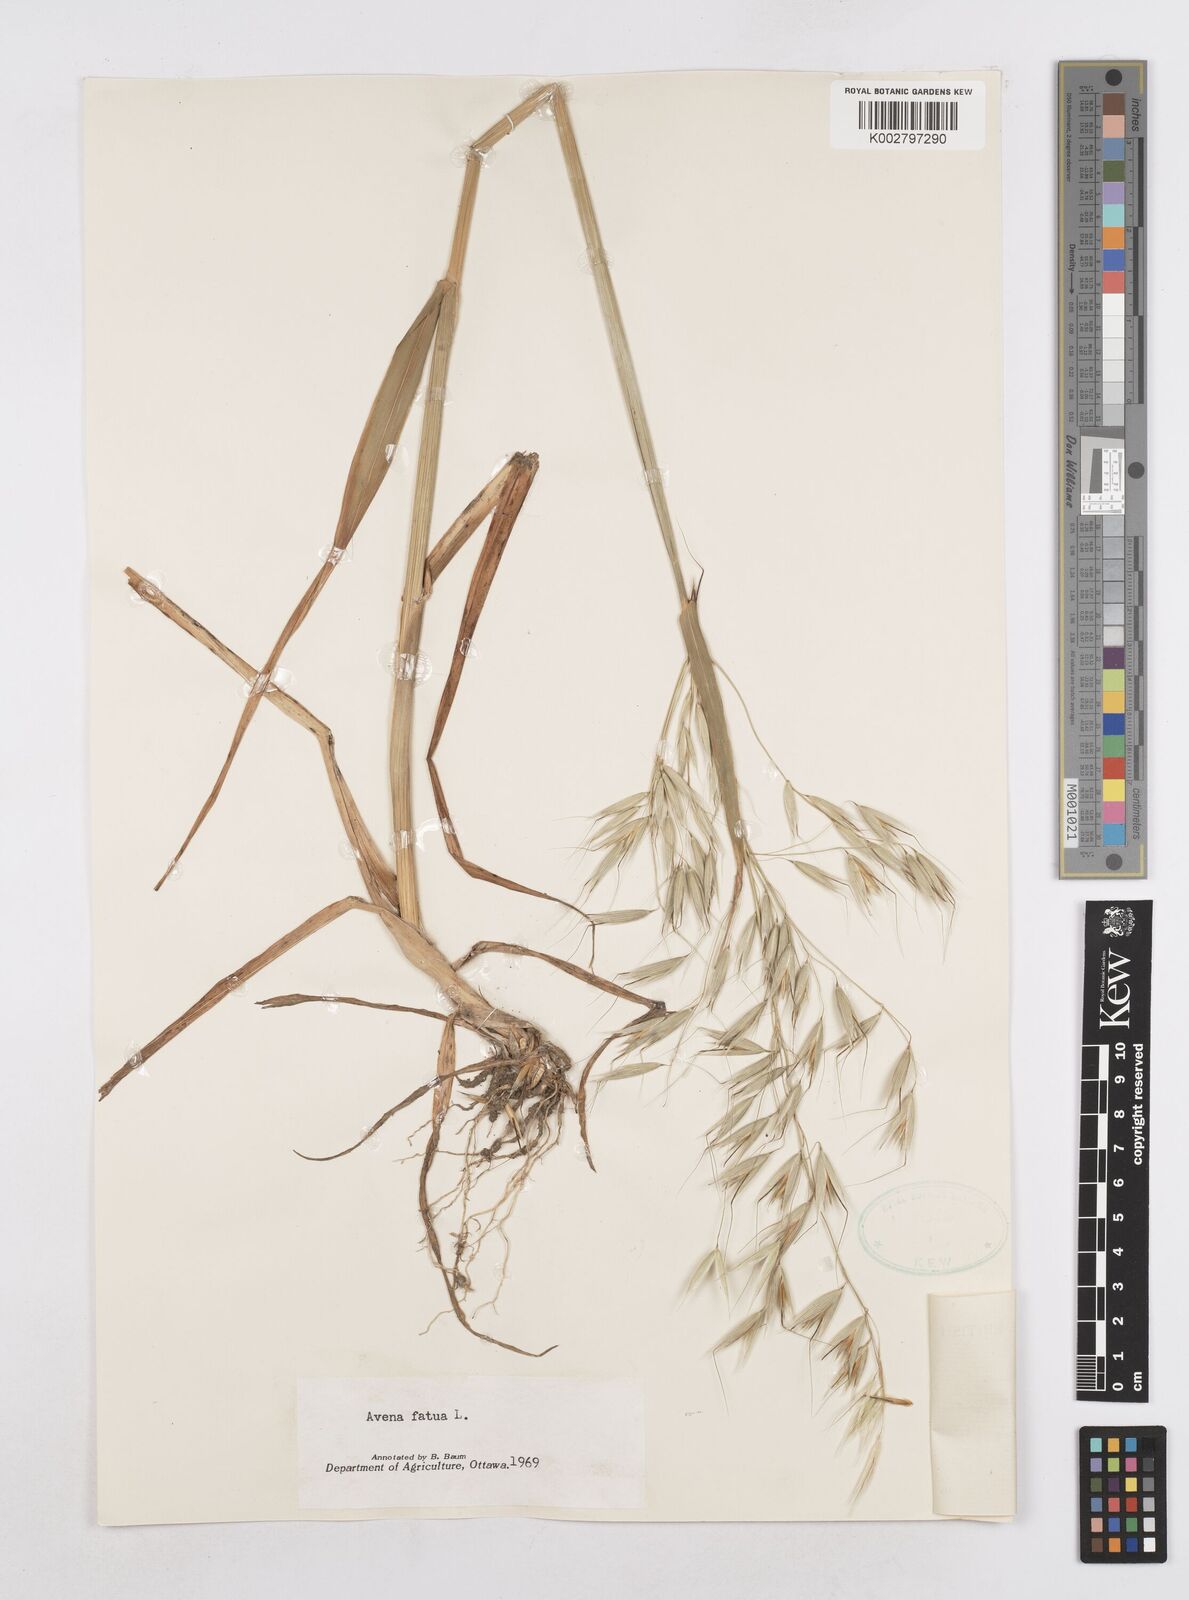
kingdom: Plantae
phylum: Tracheophyta
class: Liliopsida
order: Poales
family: Poaceae
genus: Avena
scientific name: Avena fatua
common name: Wild oat
